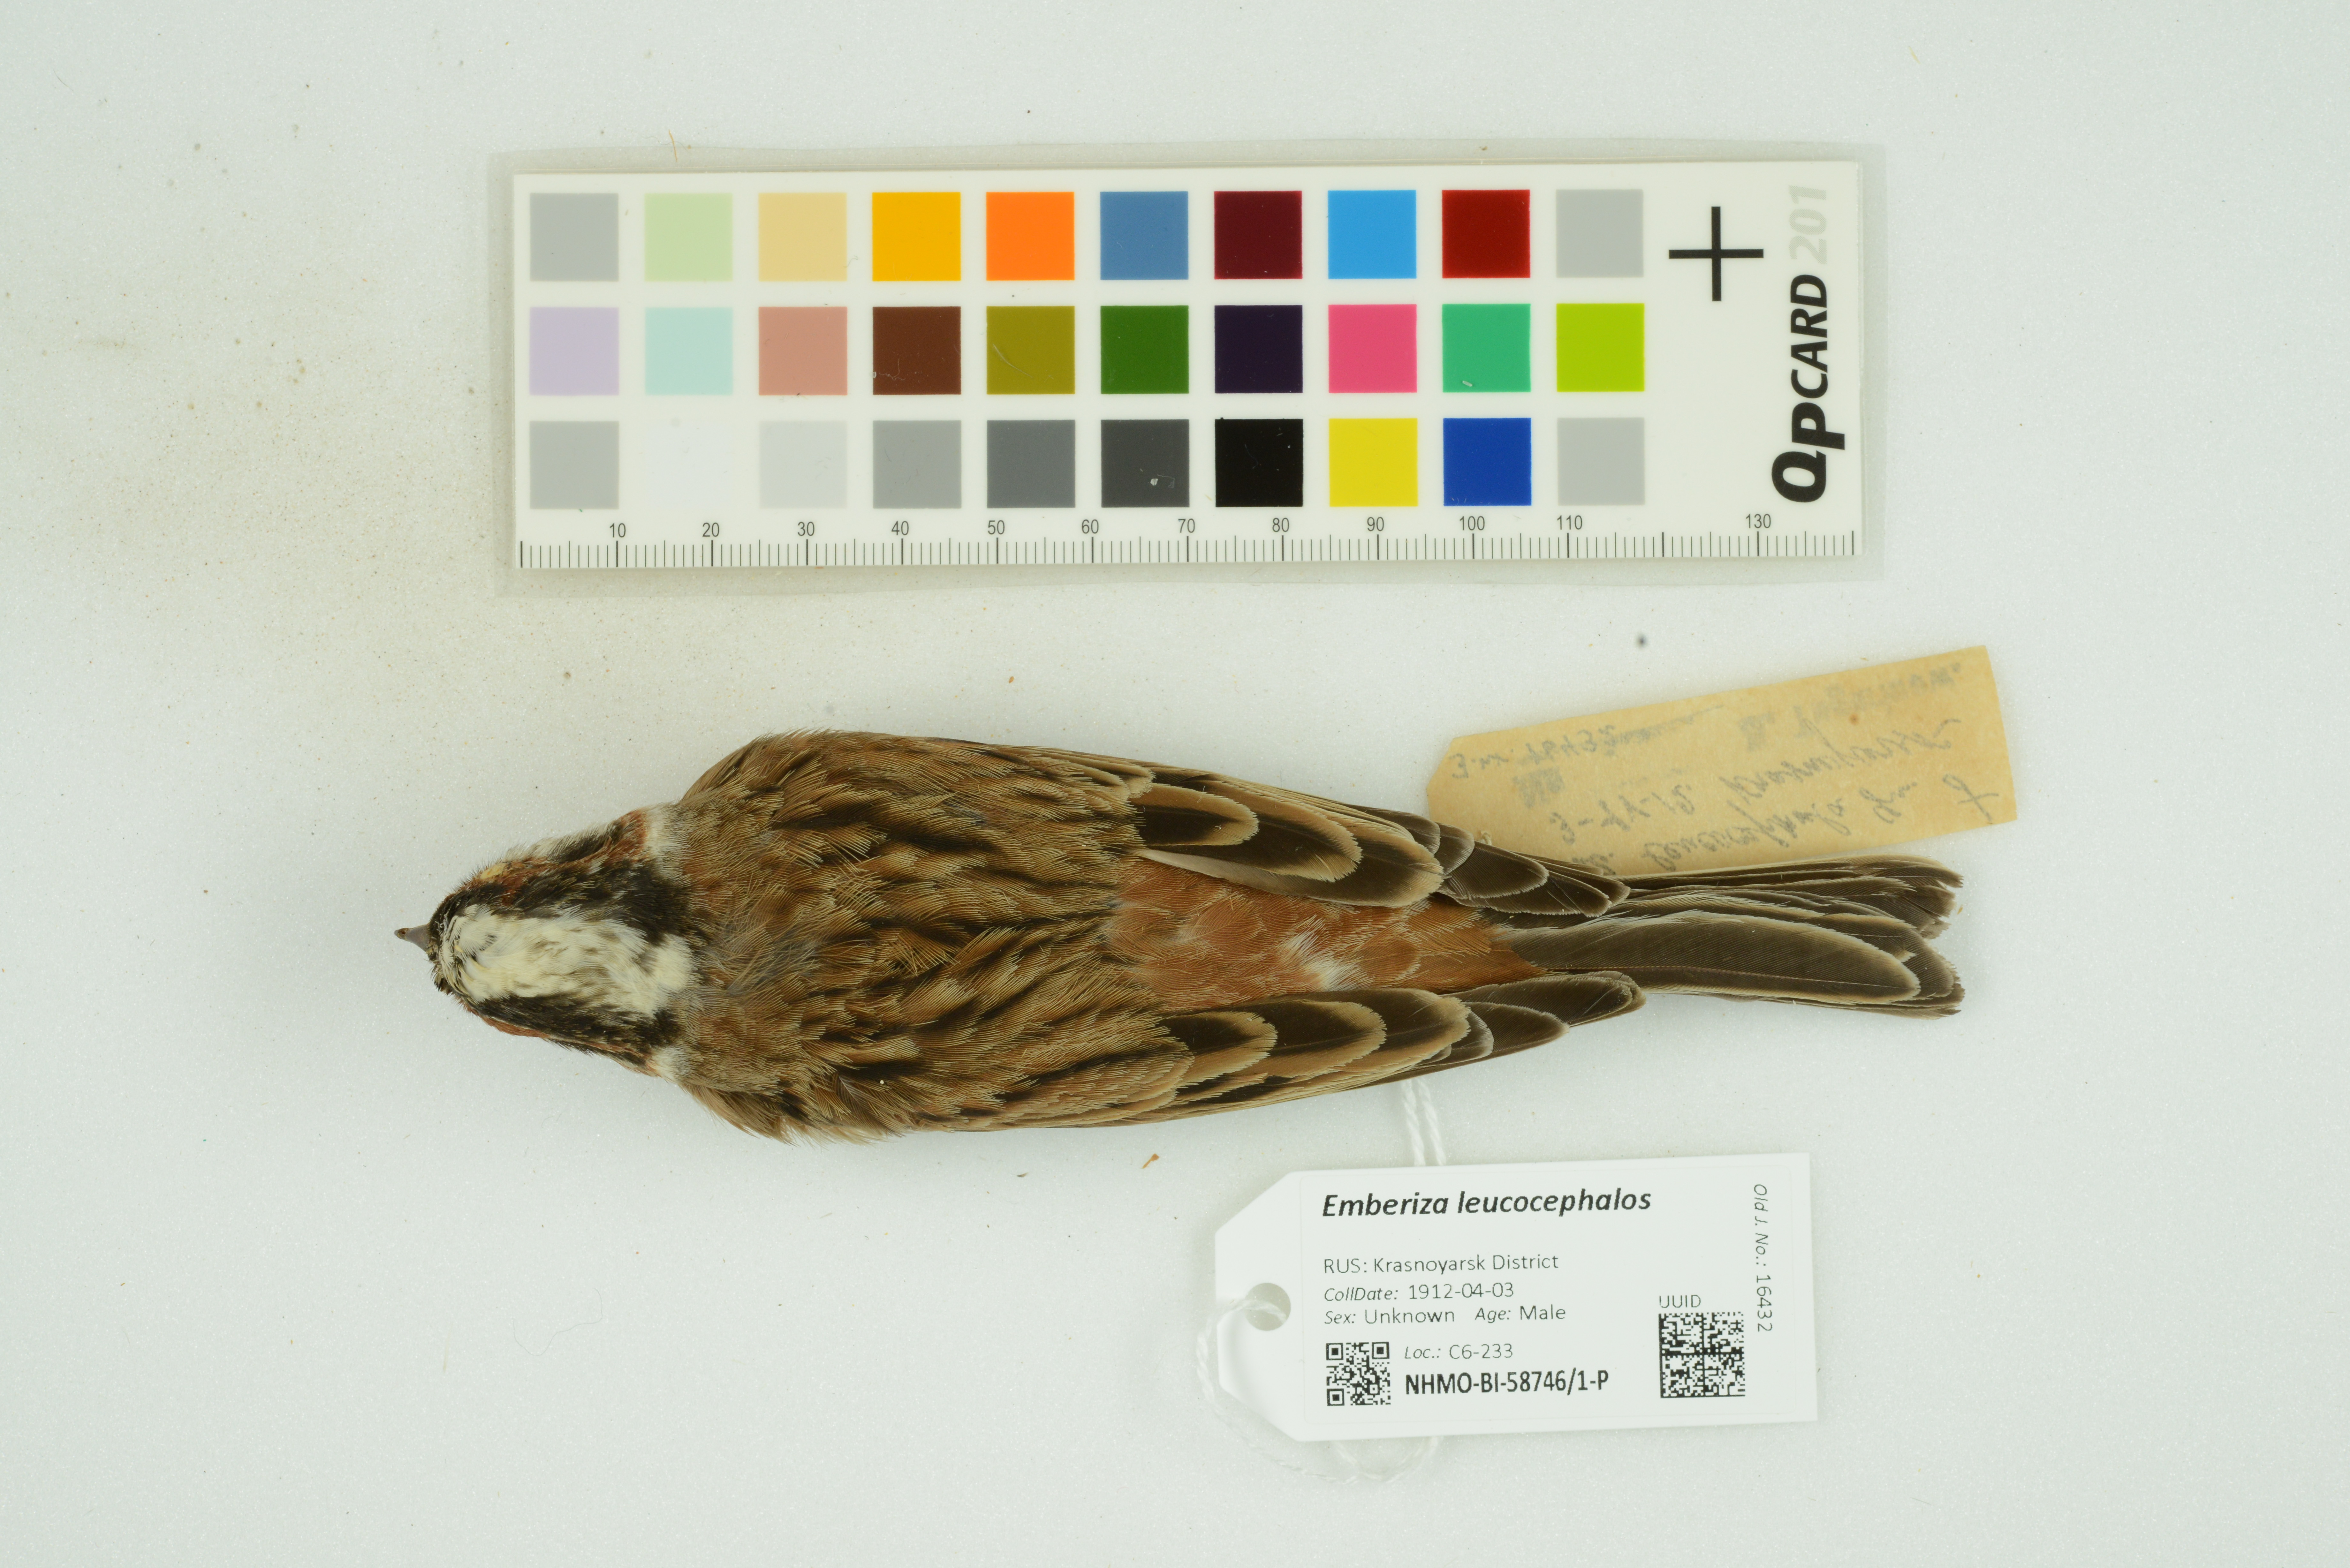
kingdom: Animalia
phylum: Chordata
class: Aves
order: Passeriformes
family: Emberizidae
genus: Emberiza
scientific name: Emberiza leucocephalos
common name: Pine bunting
